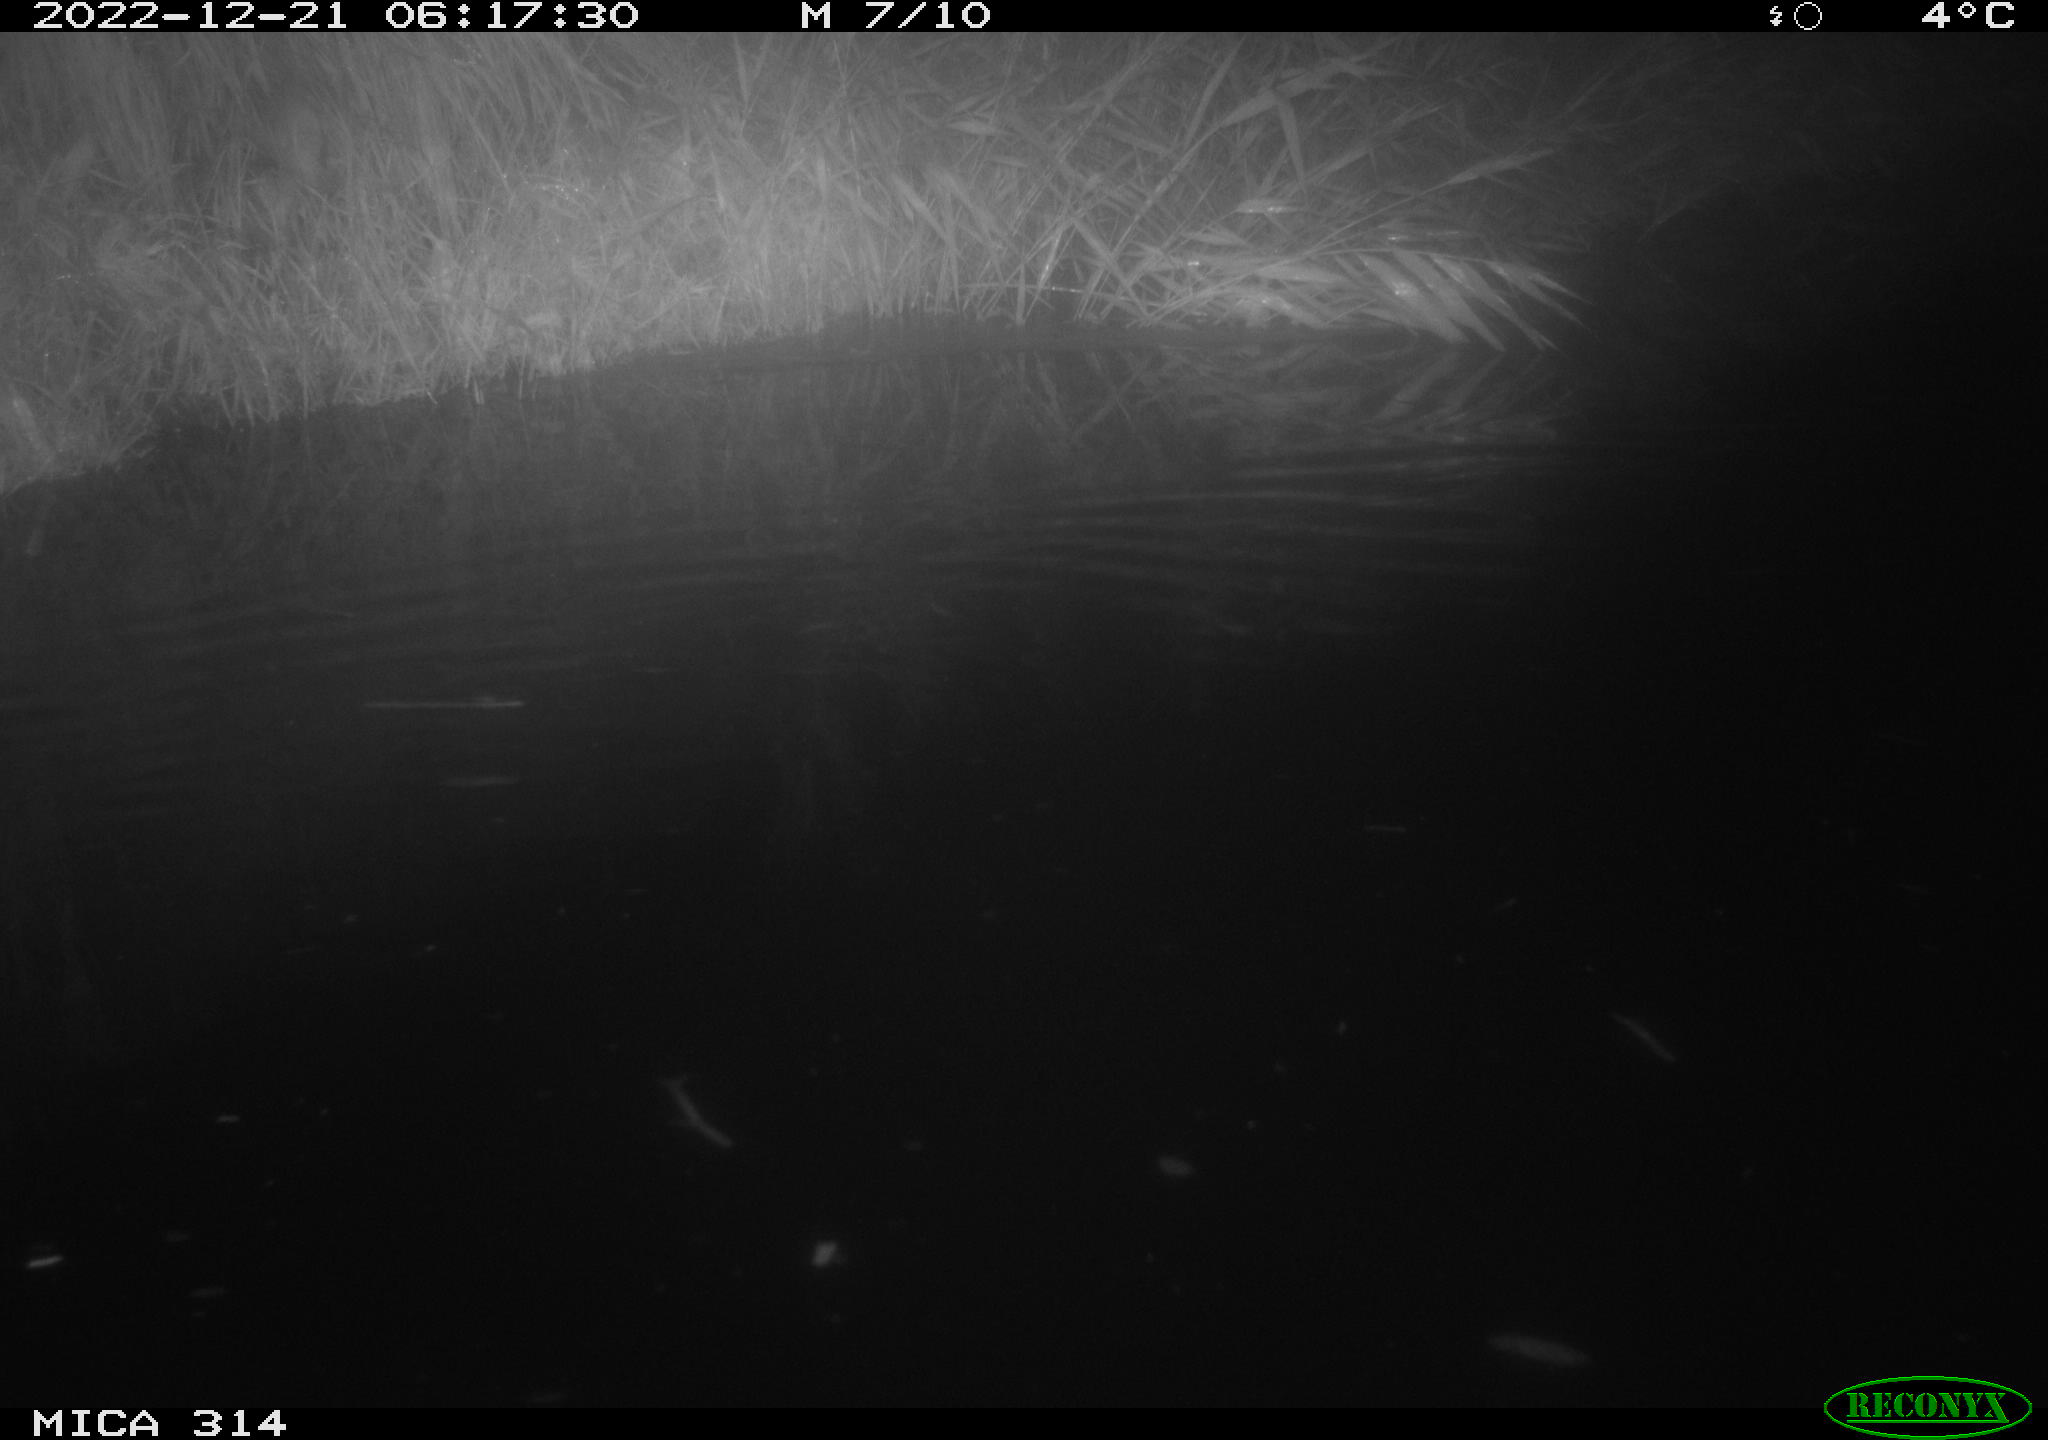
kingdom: Animalia
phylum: Chordata
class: Mammalia
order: Rodentia
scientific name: Rodentia
